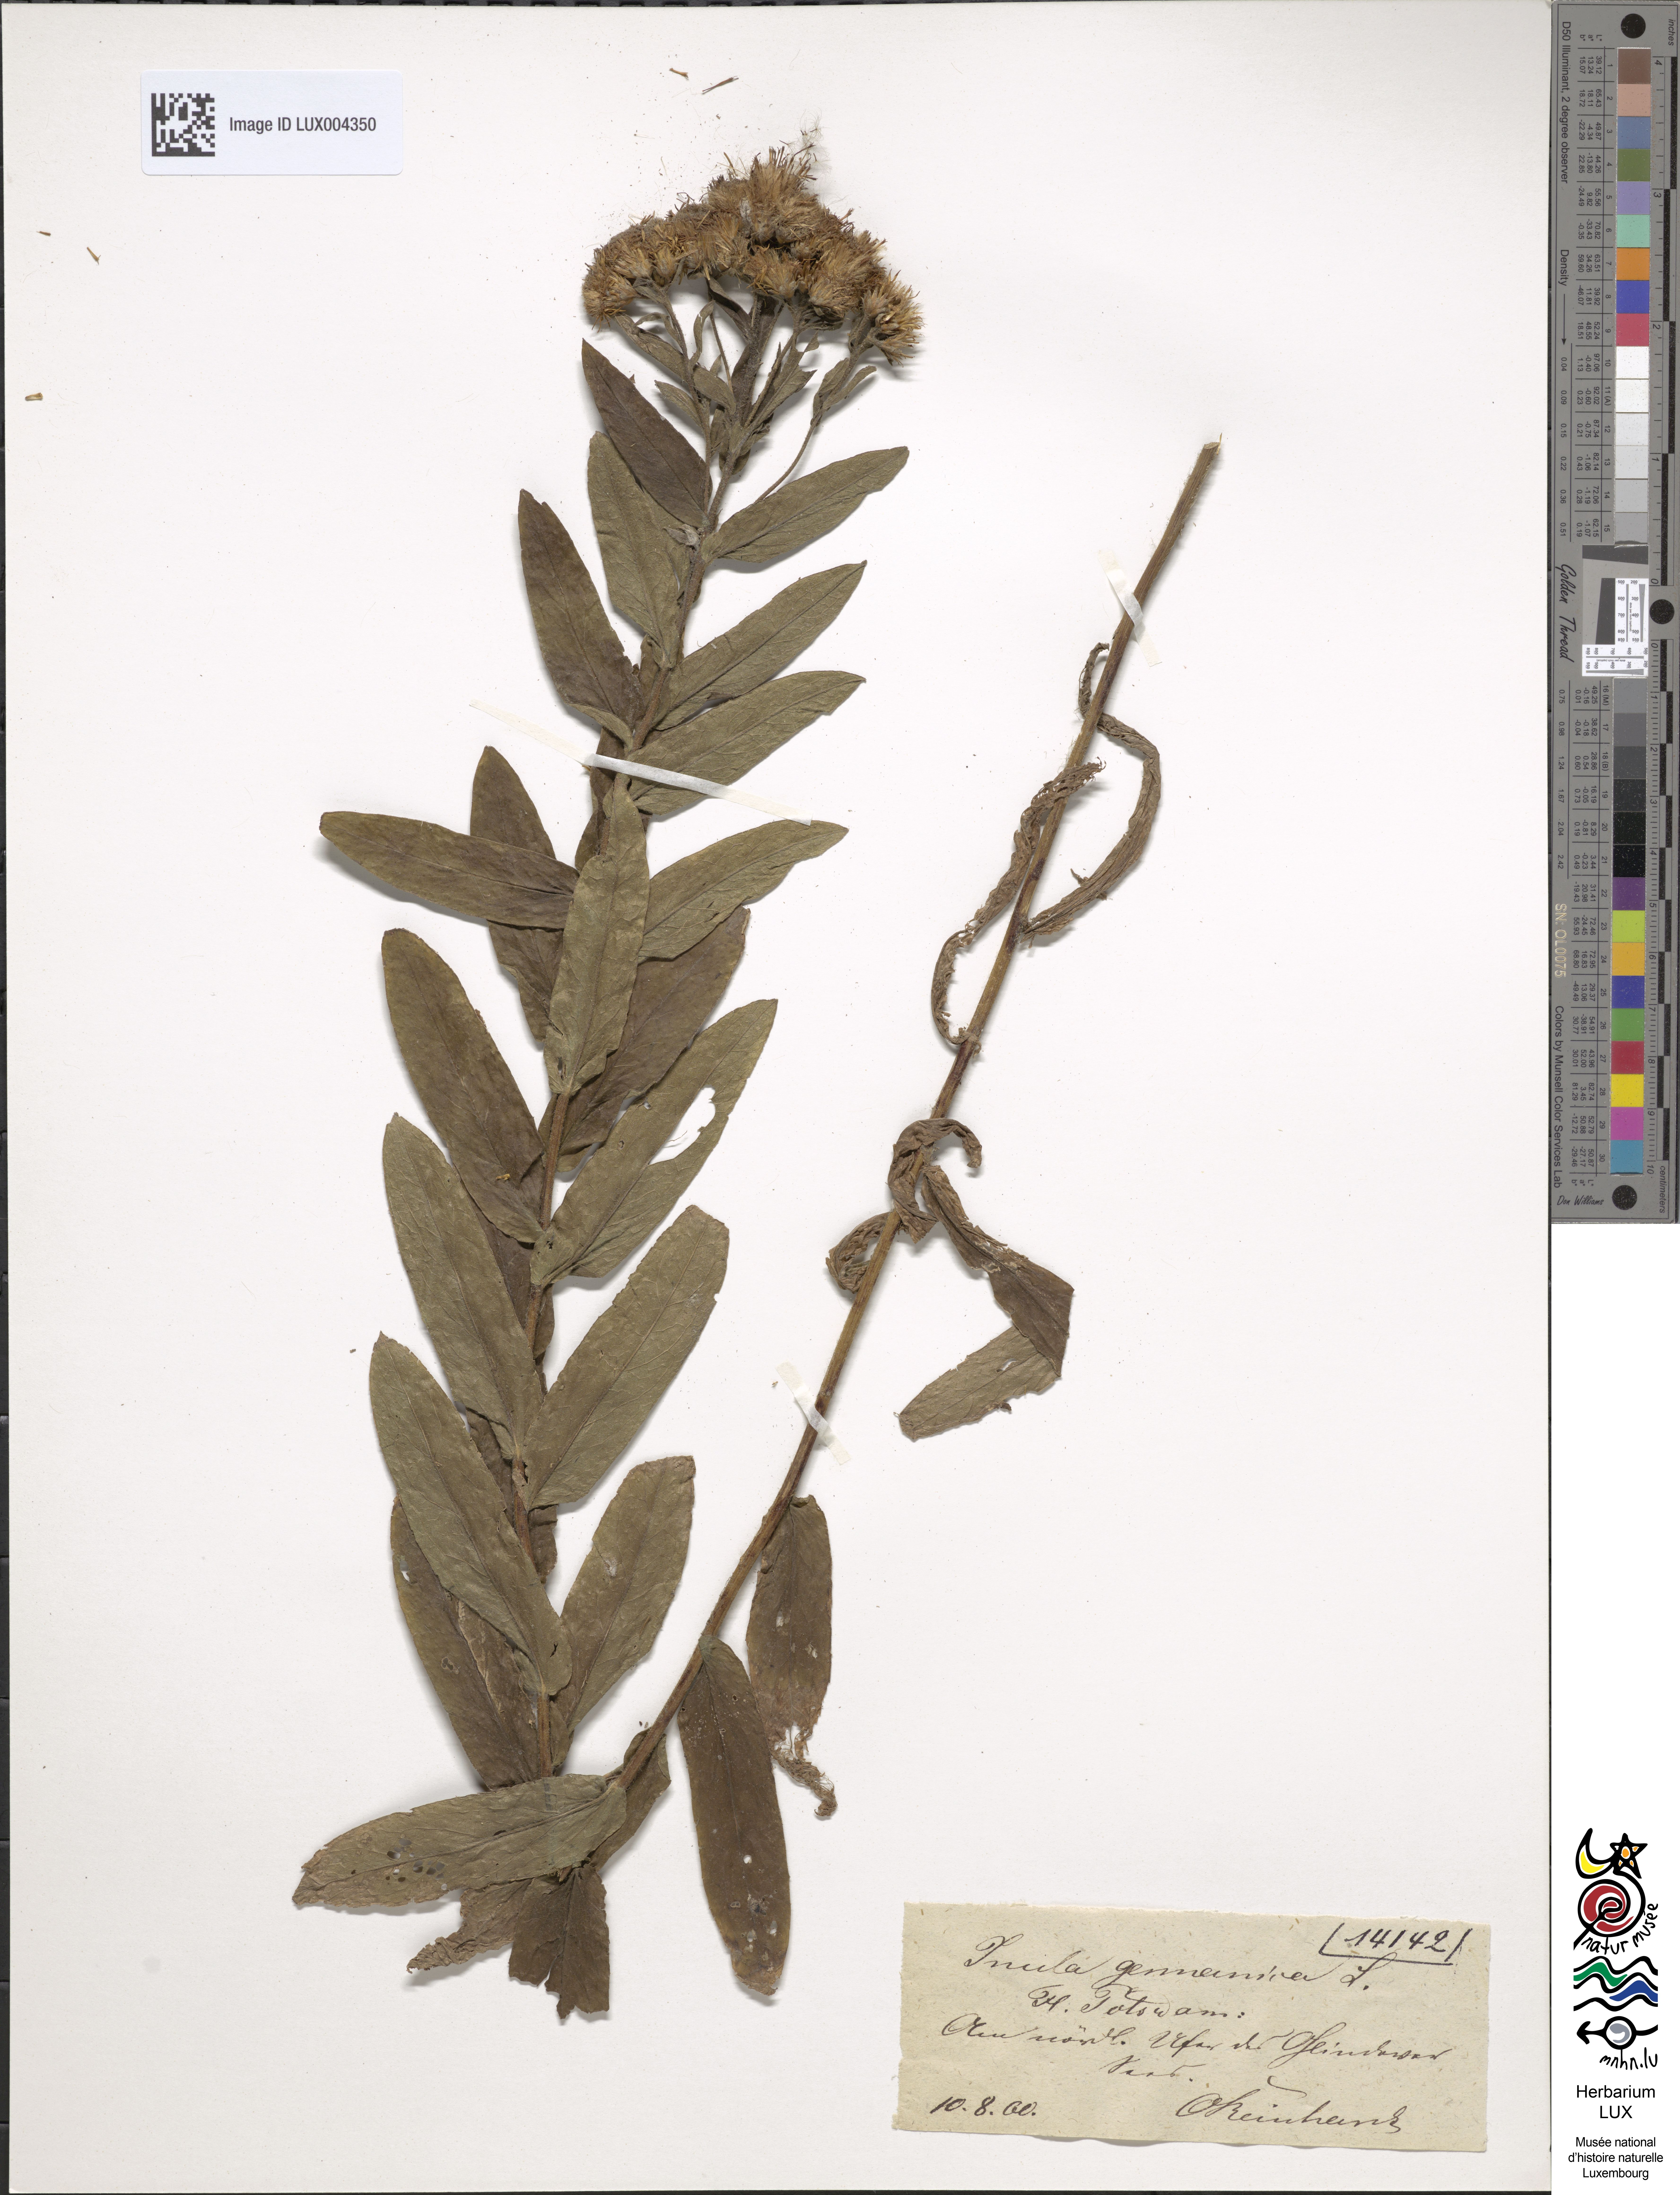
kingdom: Plantae
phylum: Tracheophyta
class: Magnoliopsida
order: Asterales
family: Asteraceae
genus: Pentanema
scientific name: Pentanema germanicum
